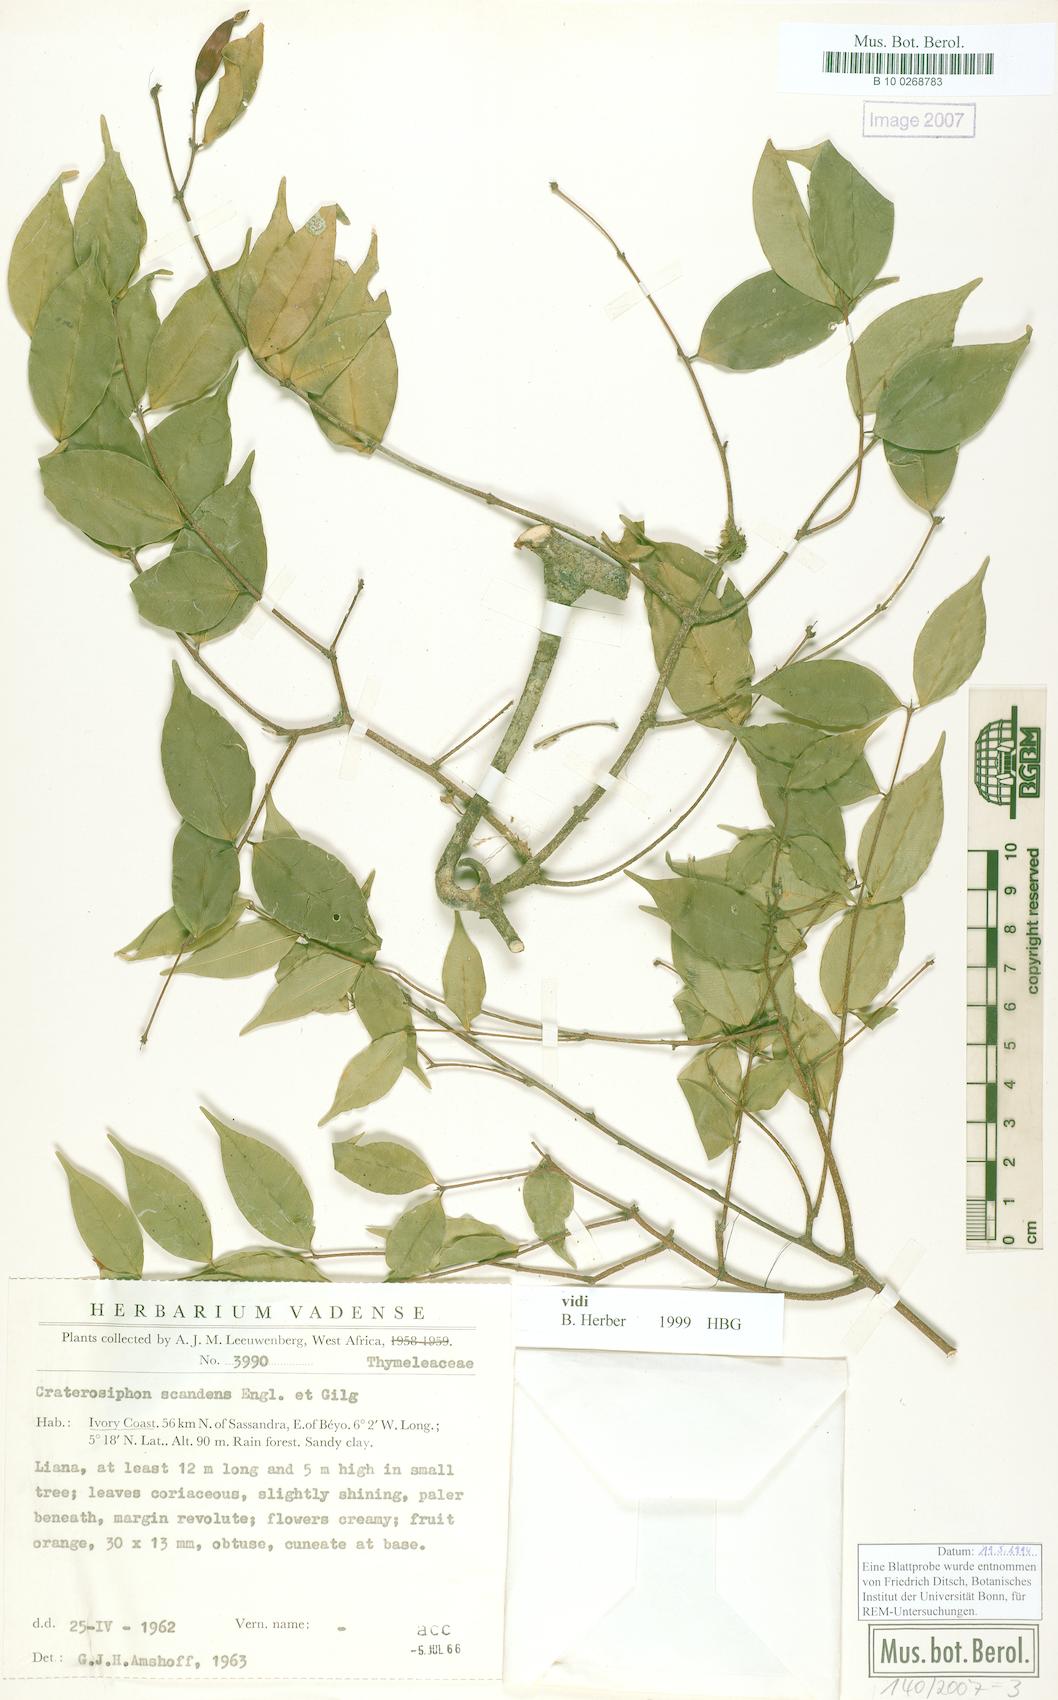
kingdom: Plantae
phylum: Tracheophyta
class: Magnoliopsida
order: Malvales
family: Thymelaeaceae
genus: Craterosiphon
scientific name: Craterosiphon scandens
